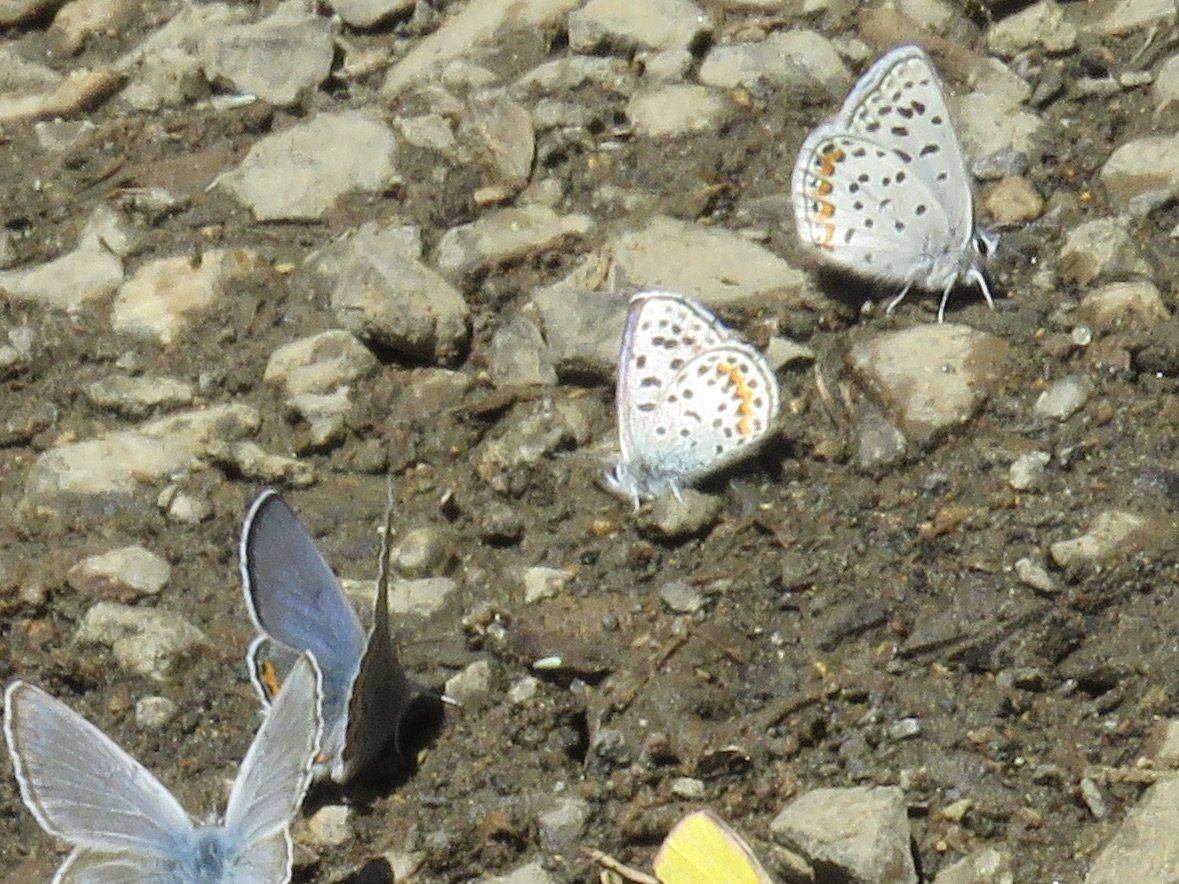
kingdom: Animalia
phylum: Arthropoda
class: Insecta
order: Lepidoptera
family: Lycaenidae
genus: Euphilotes
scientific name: Euphilotes enoptes
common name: Columbia Blue
